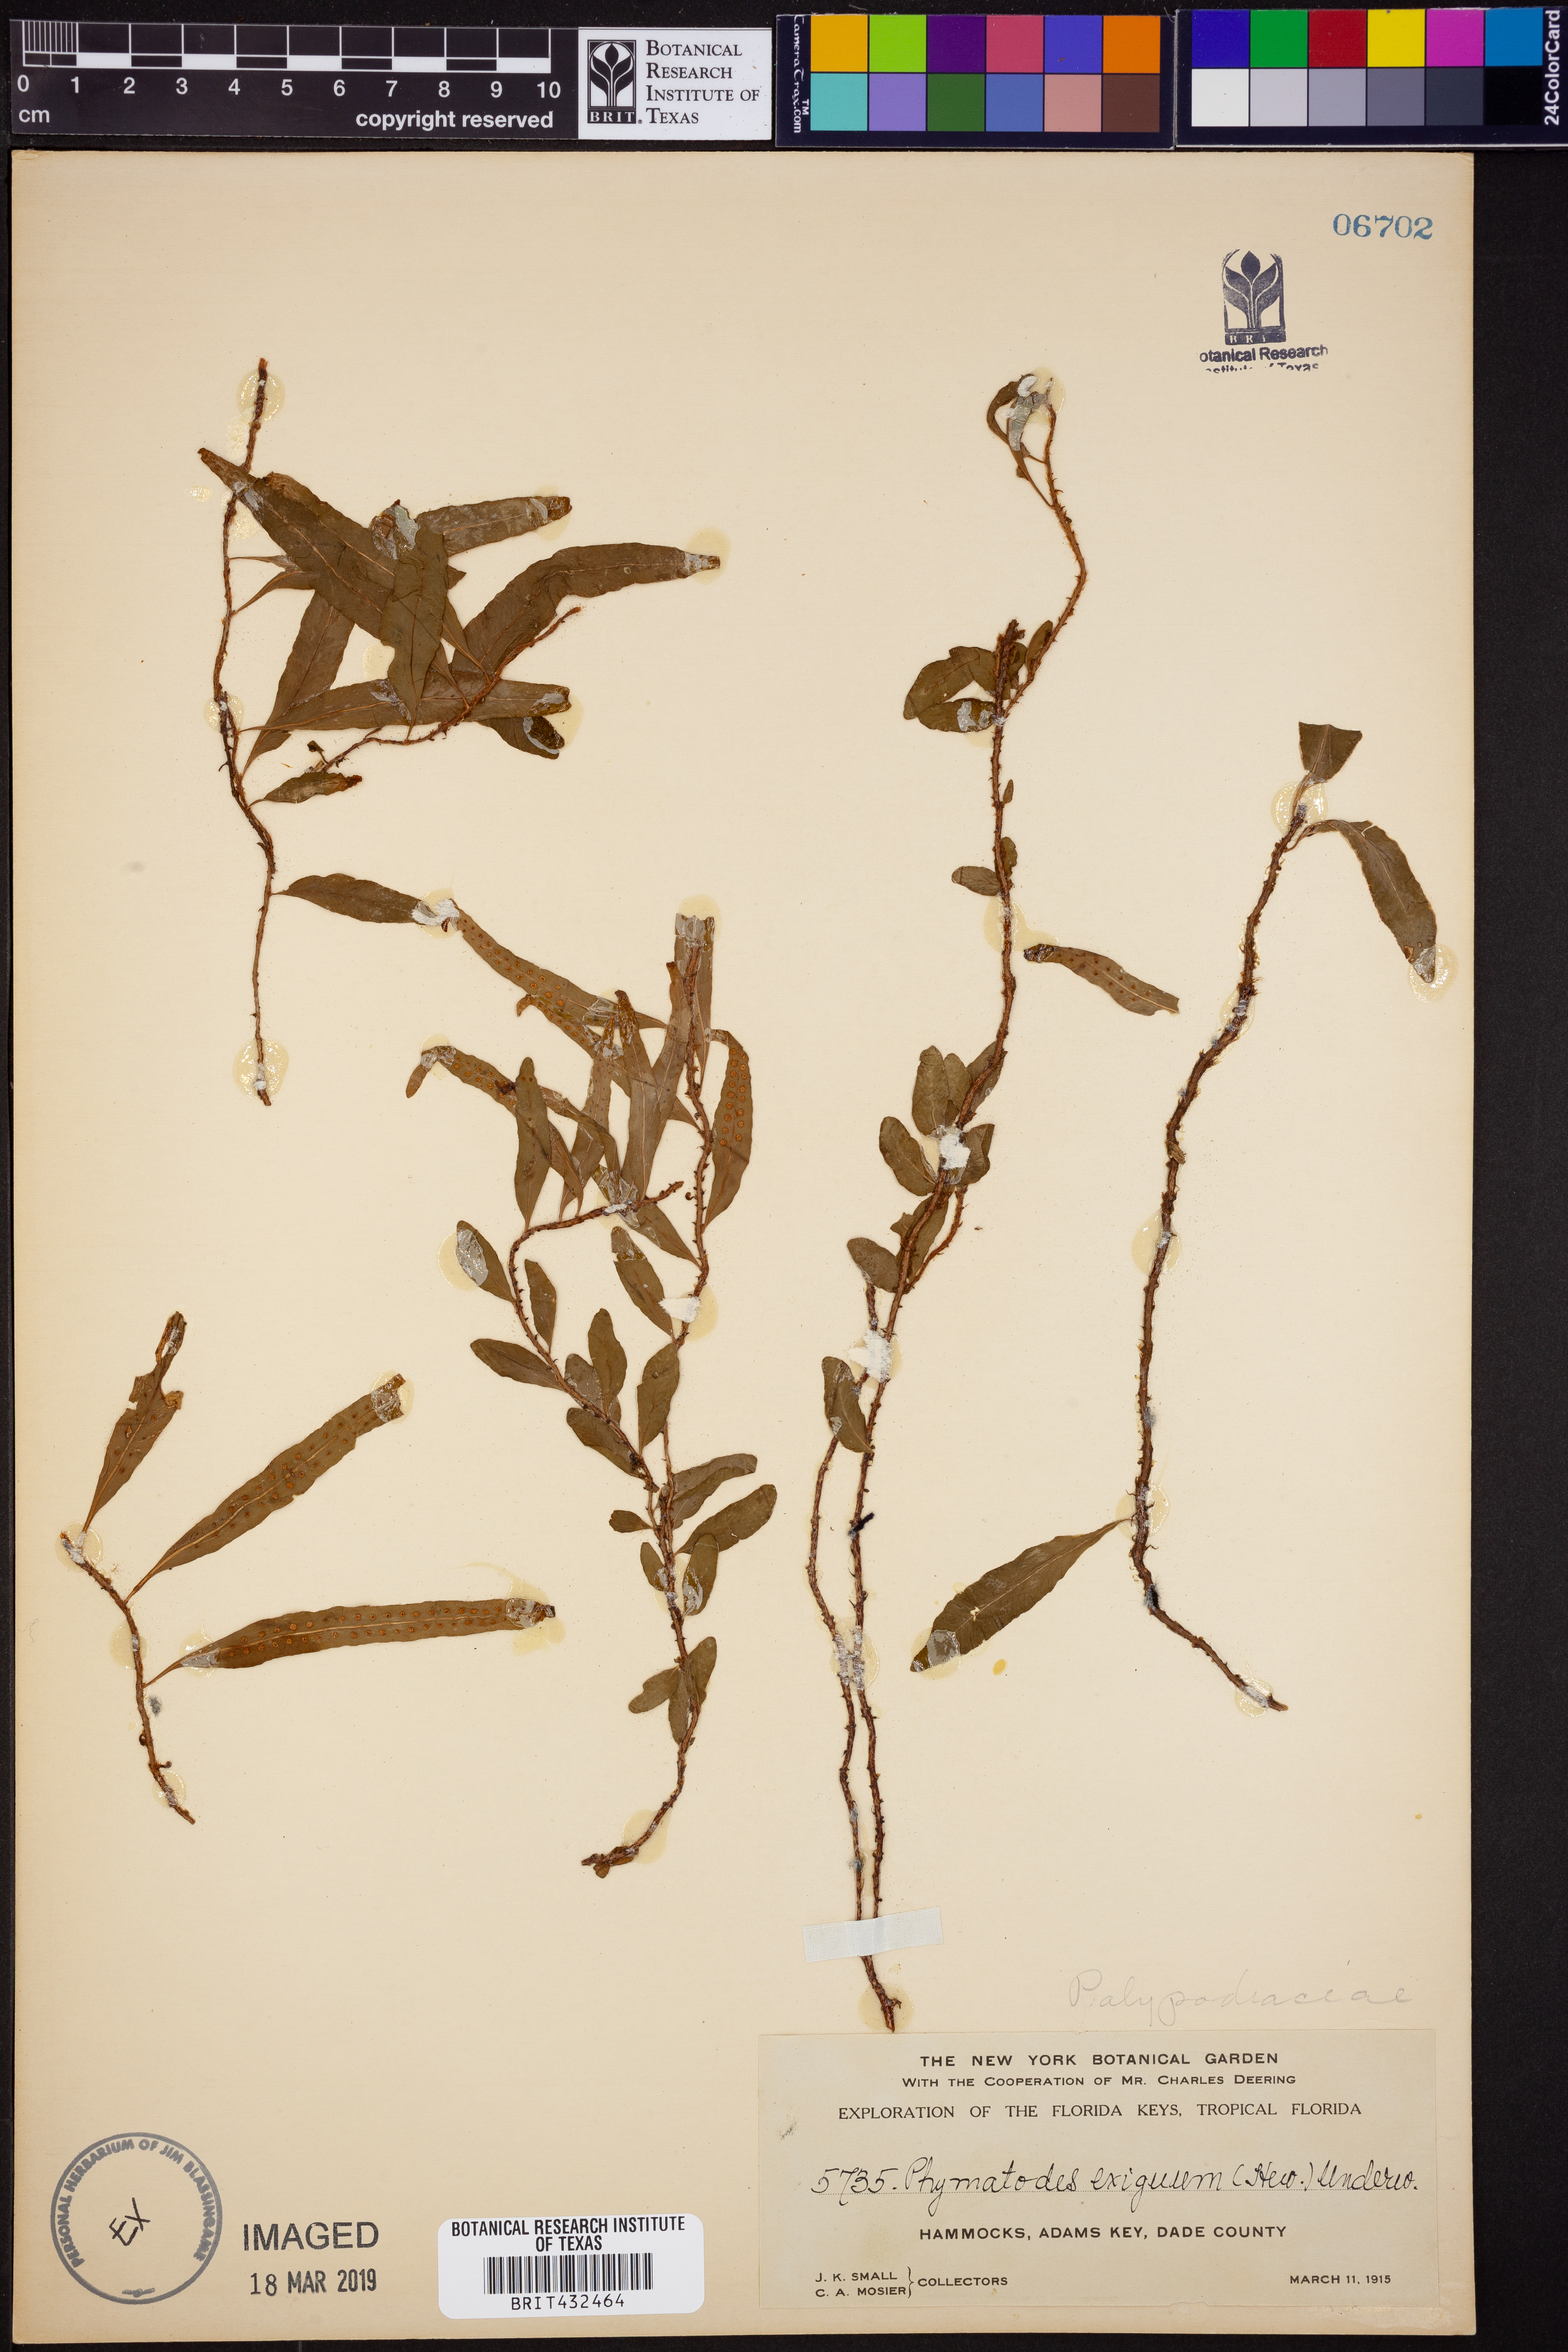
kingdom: Plantae
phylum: Tracheophyta
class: Polypodiopsida
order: Polypodiales
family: Polypodiaceae
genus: Microgramma
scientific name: Microgramma heterophylla
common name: Clinging snakefern
